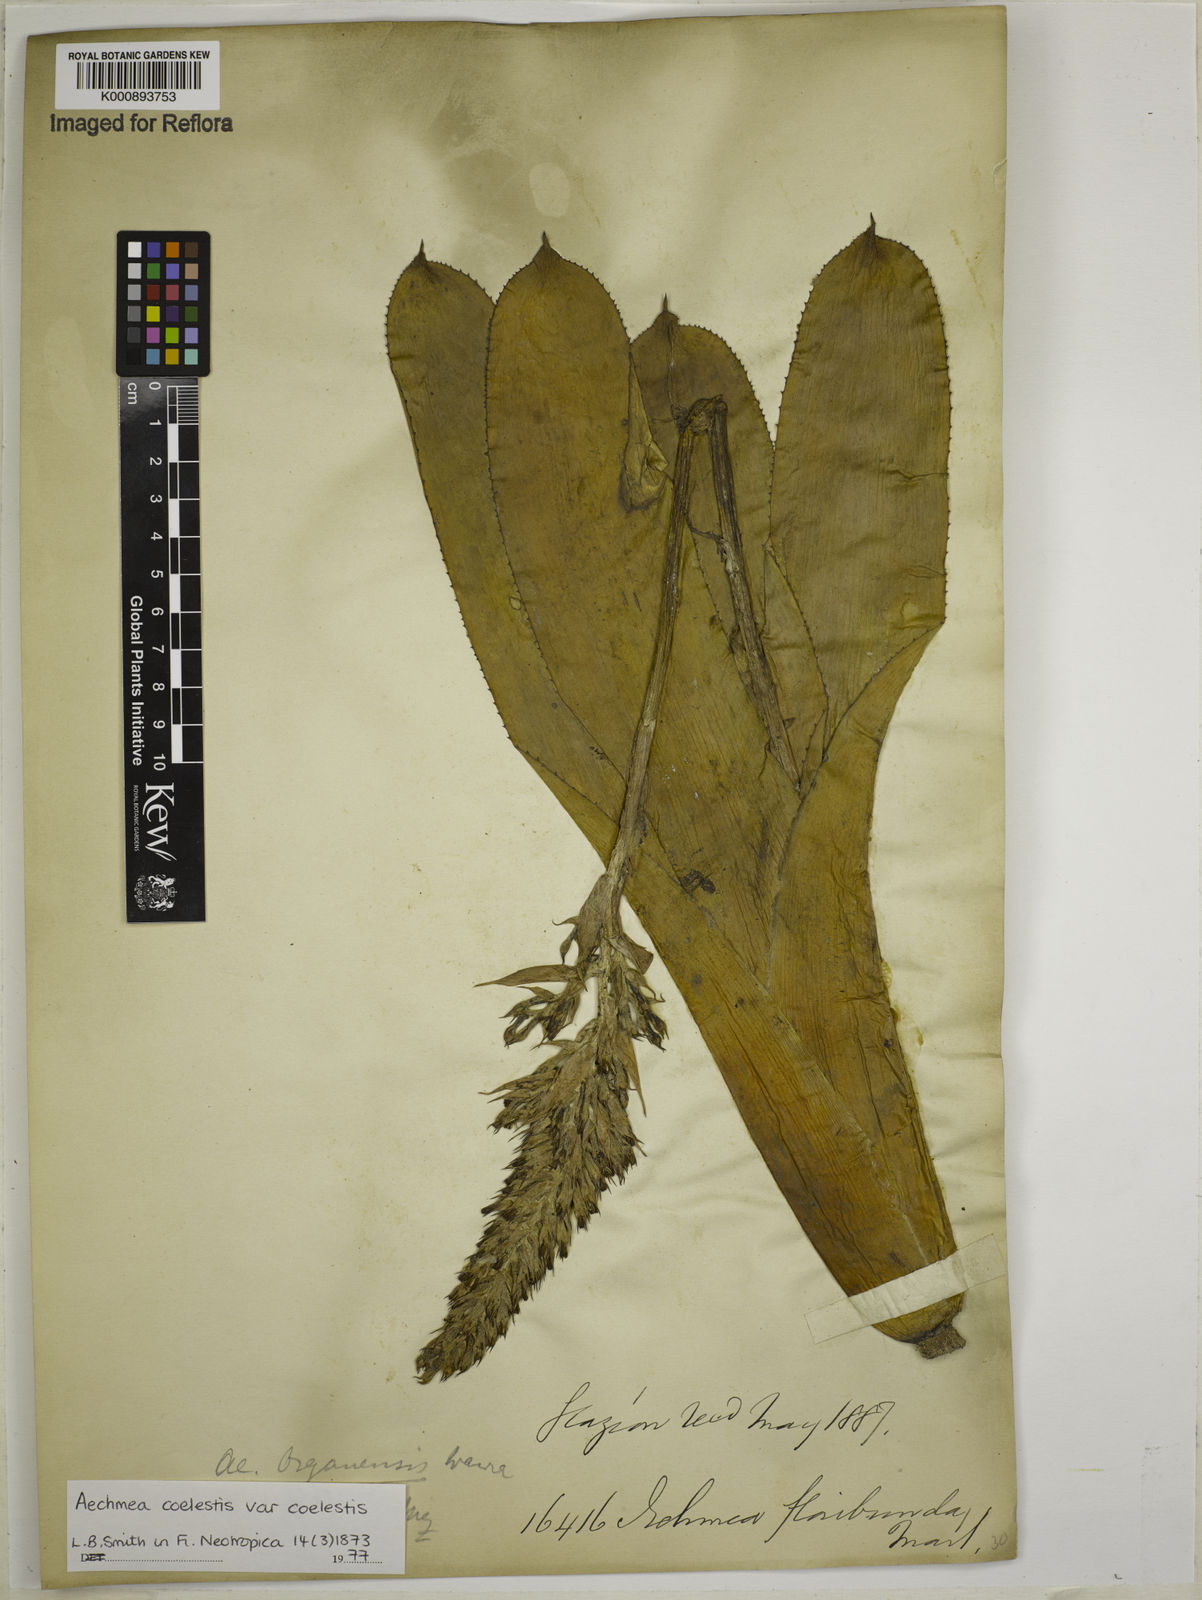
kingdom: Plantae
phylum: Tracheophyta
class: Liliopsida
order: Poales
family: Bromeliaceae
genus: Aechmea
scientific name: Aechmea coelestis
